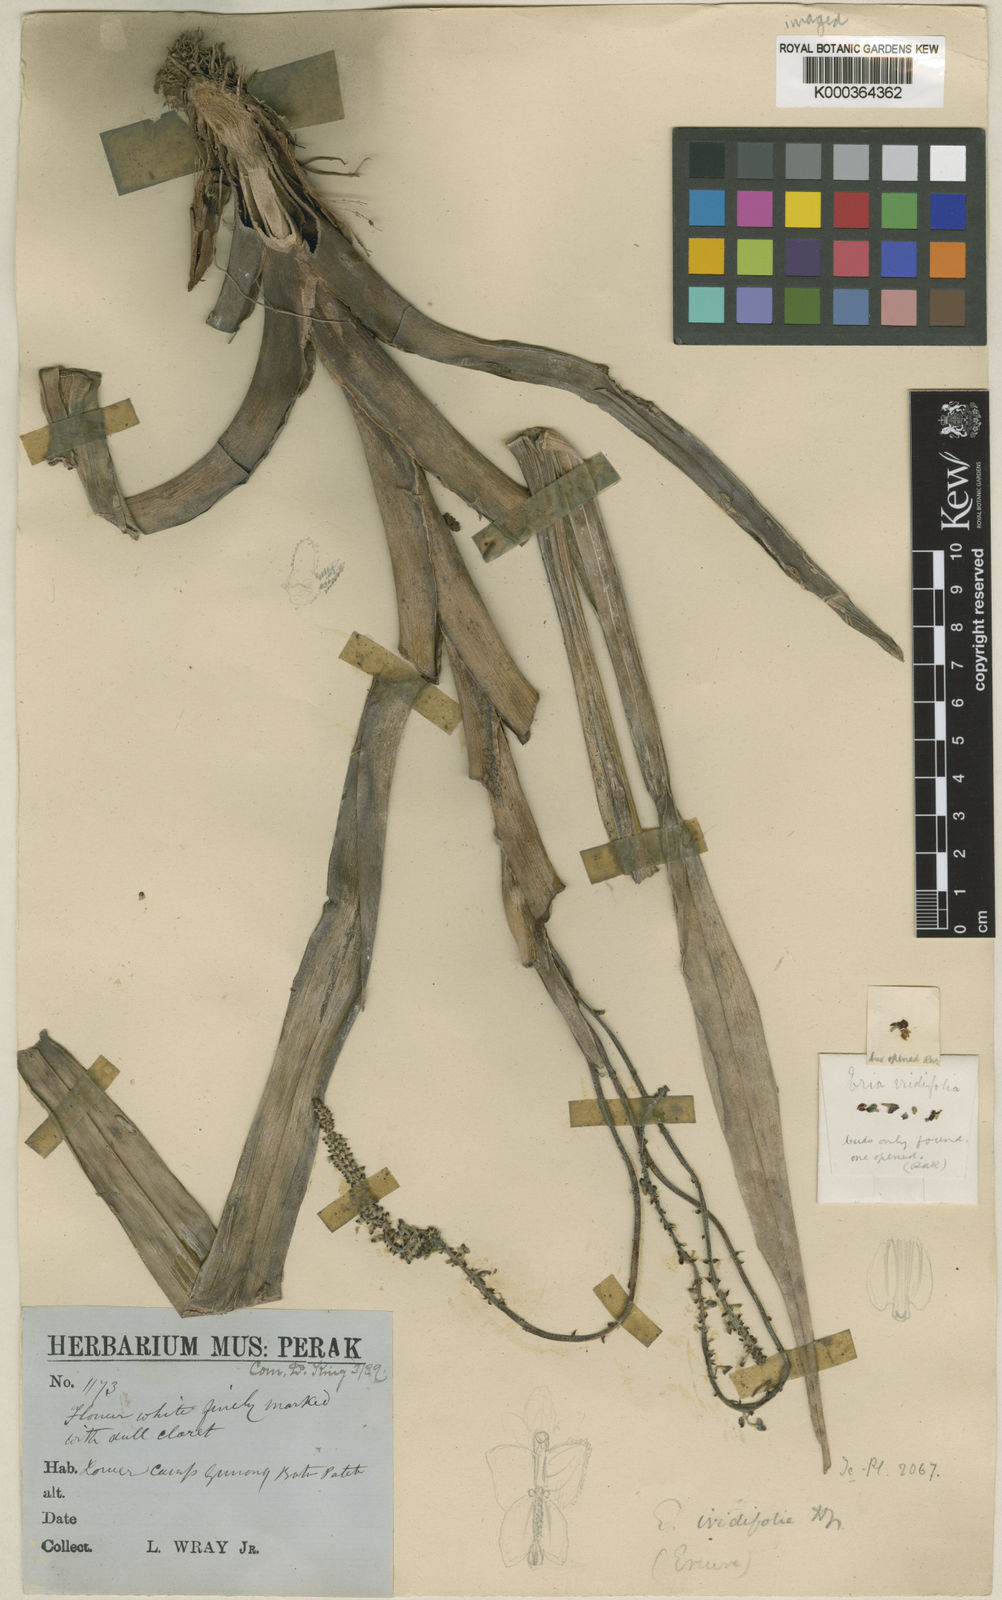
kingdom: Plantae
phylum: Tracheophyta
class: Liliopsida
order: Asparagales
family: Orchidaceae
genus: Mycaranthes
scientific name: Mycaranthes latifolia
